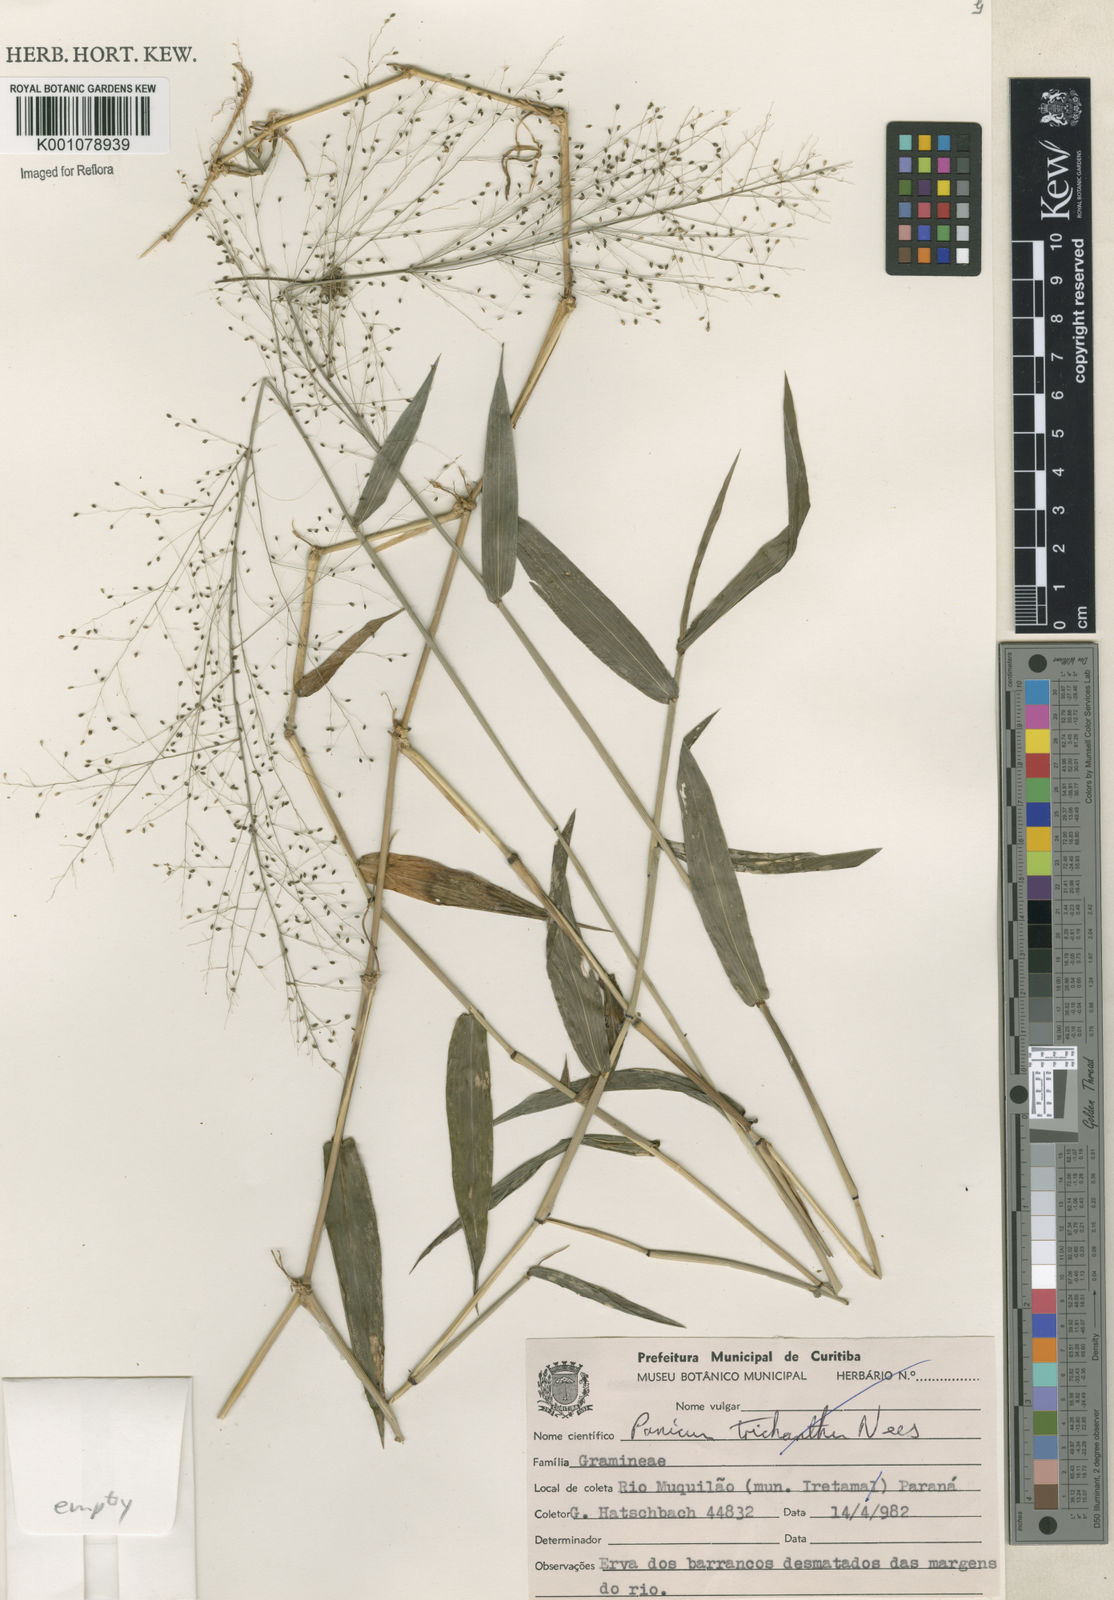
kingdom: Plantae
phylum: Tracheophyta
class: Liliopsida
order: Poales
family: Poaceae
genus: Panicum
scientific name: Panicum
